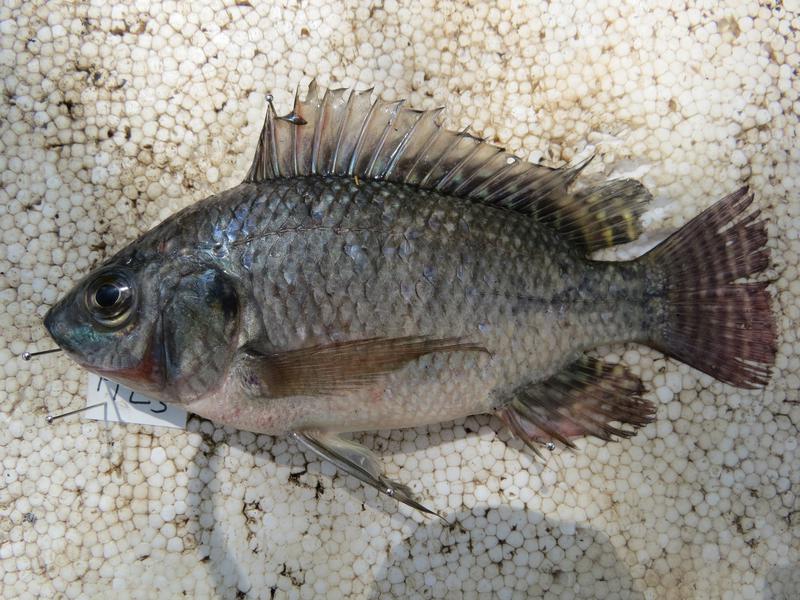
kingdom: Animalia
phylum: Chordata
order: Perciformes
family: Cichlidae
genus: Oreochromis
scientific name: Oreochromis niloticus
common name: Nile tilapia
